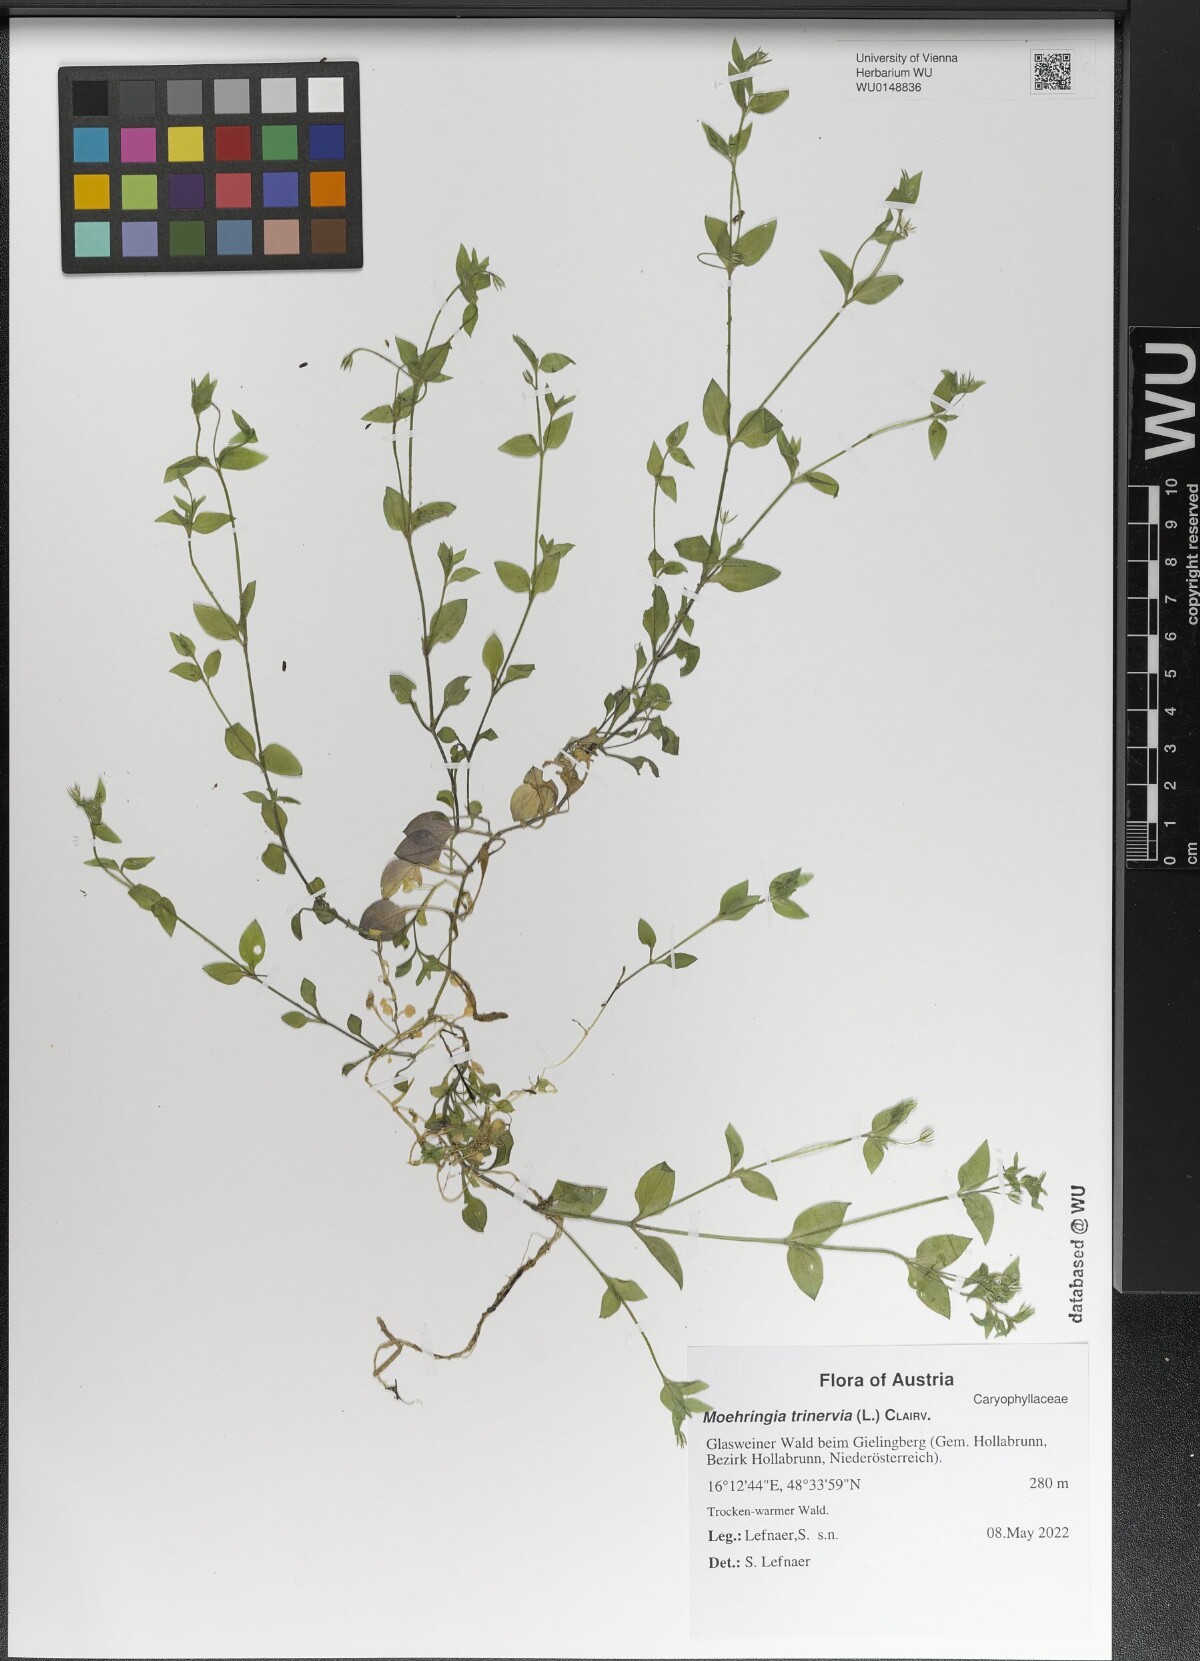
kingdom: Plantae
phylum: Tracheophyta
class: Magnoliopsida
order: Caryophyllales
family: Caryophyllaceae
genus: Moehringia
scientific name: Moehringia trinervia
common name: Three-nerved sandwort
